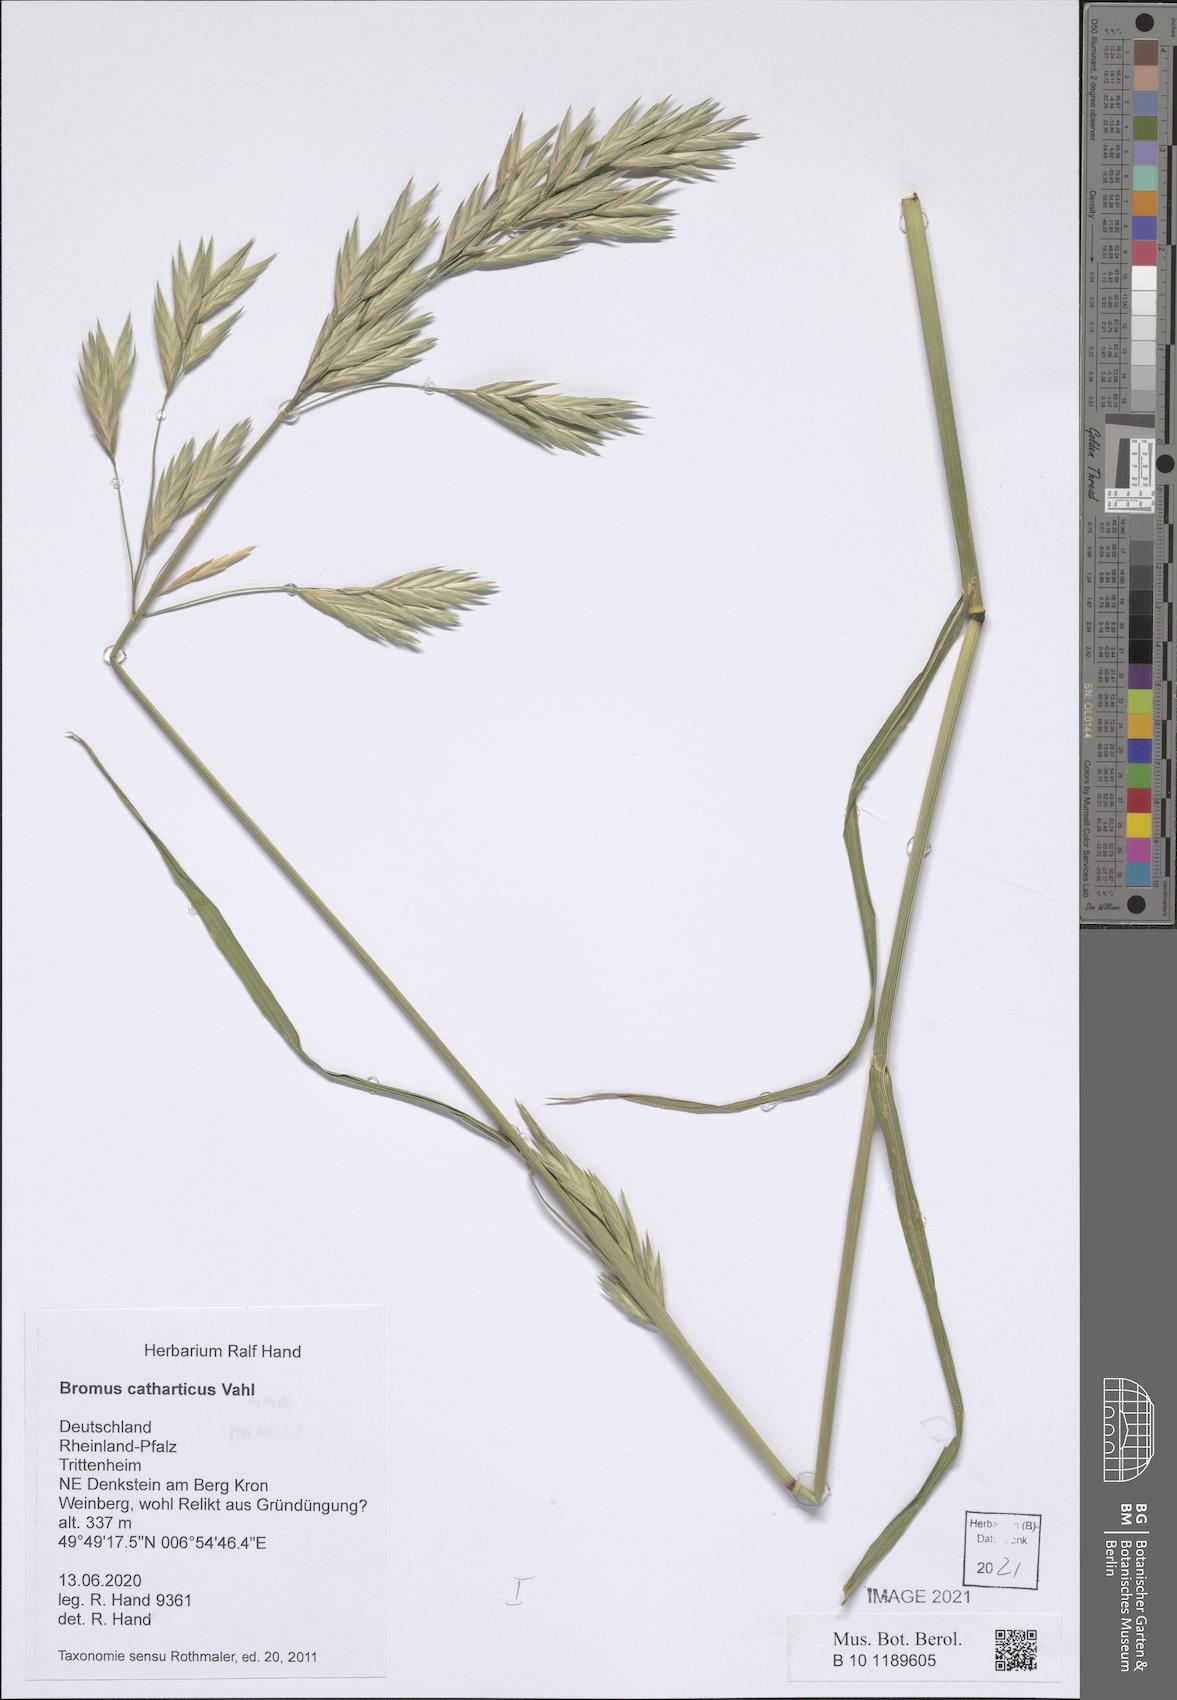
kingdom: Plantae
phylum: Tracheophyta
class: Liliopsida
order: Poales
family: Poaceae
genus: Bromus
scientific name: Bromus catharticus
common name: Rescuegrass
